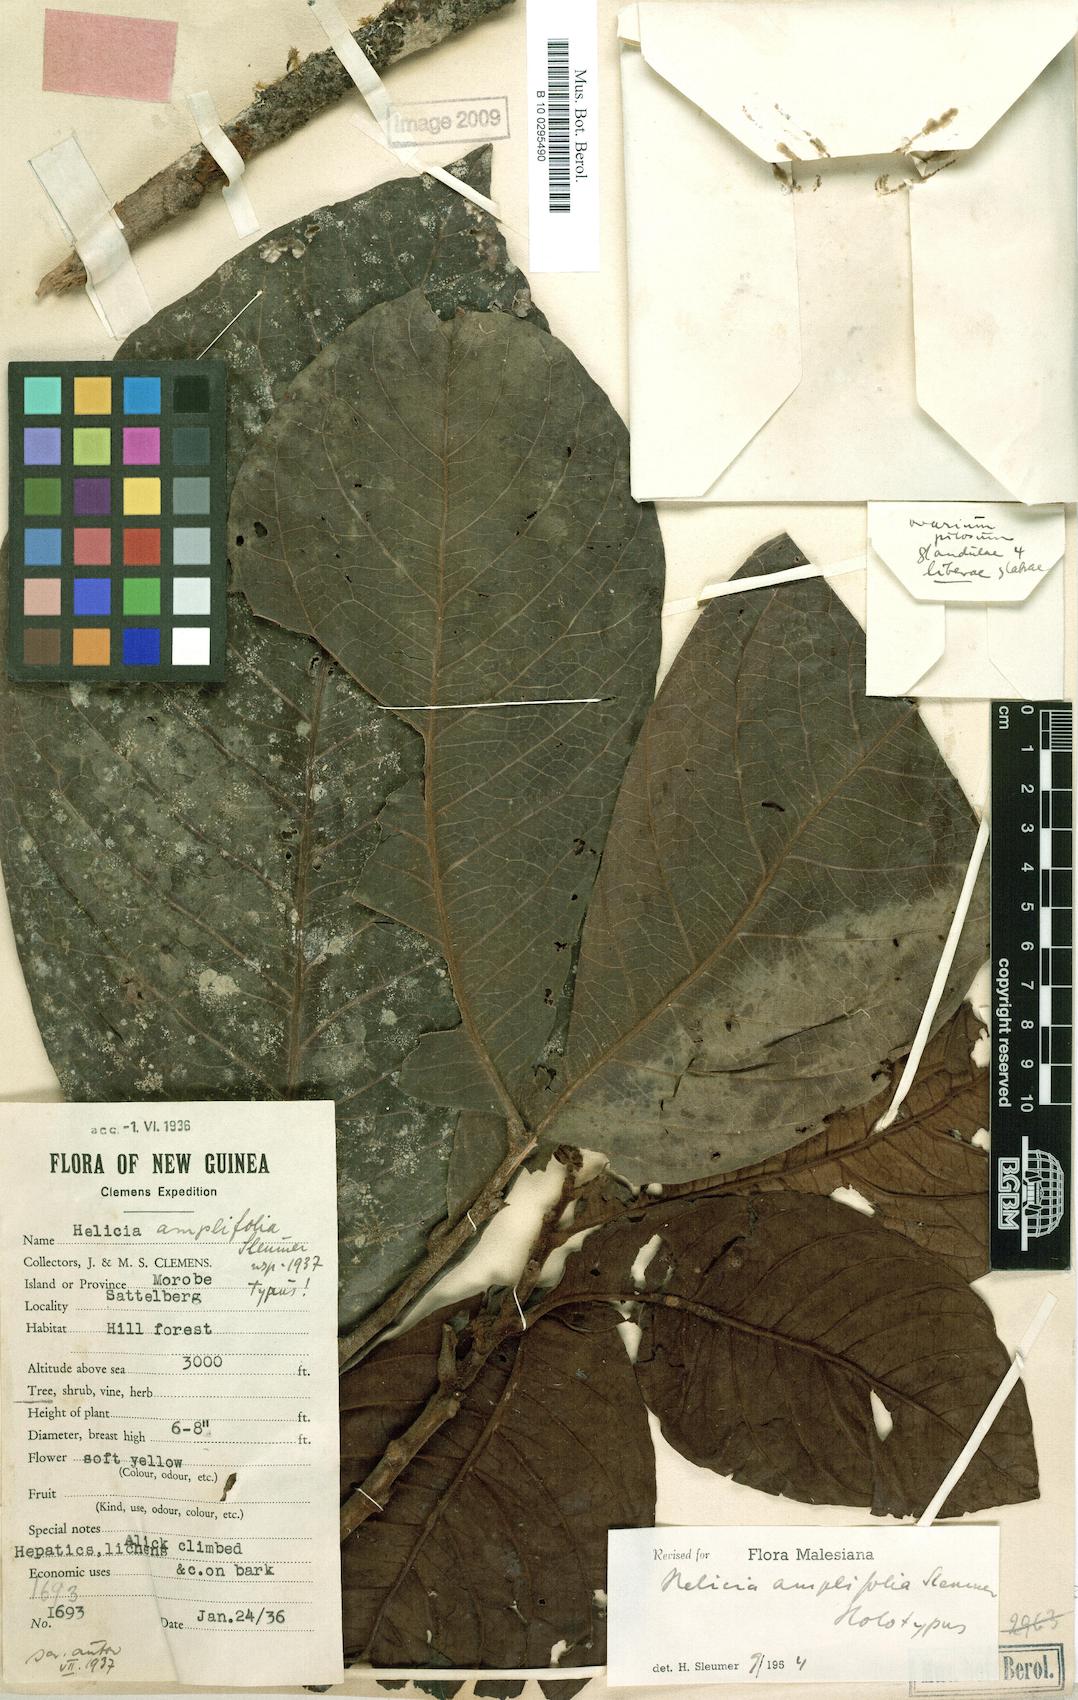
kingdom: Plantae
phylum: Tracheophyta
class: Magnoliopsida
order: Proteales
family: Proteaceae
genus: Helicia
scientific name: Helicia amplifolia
